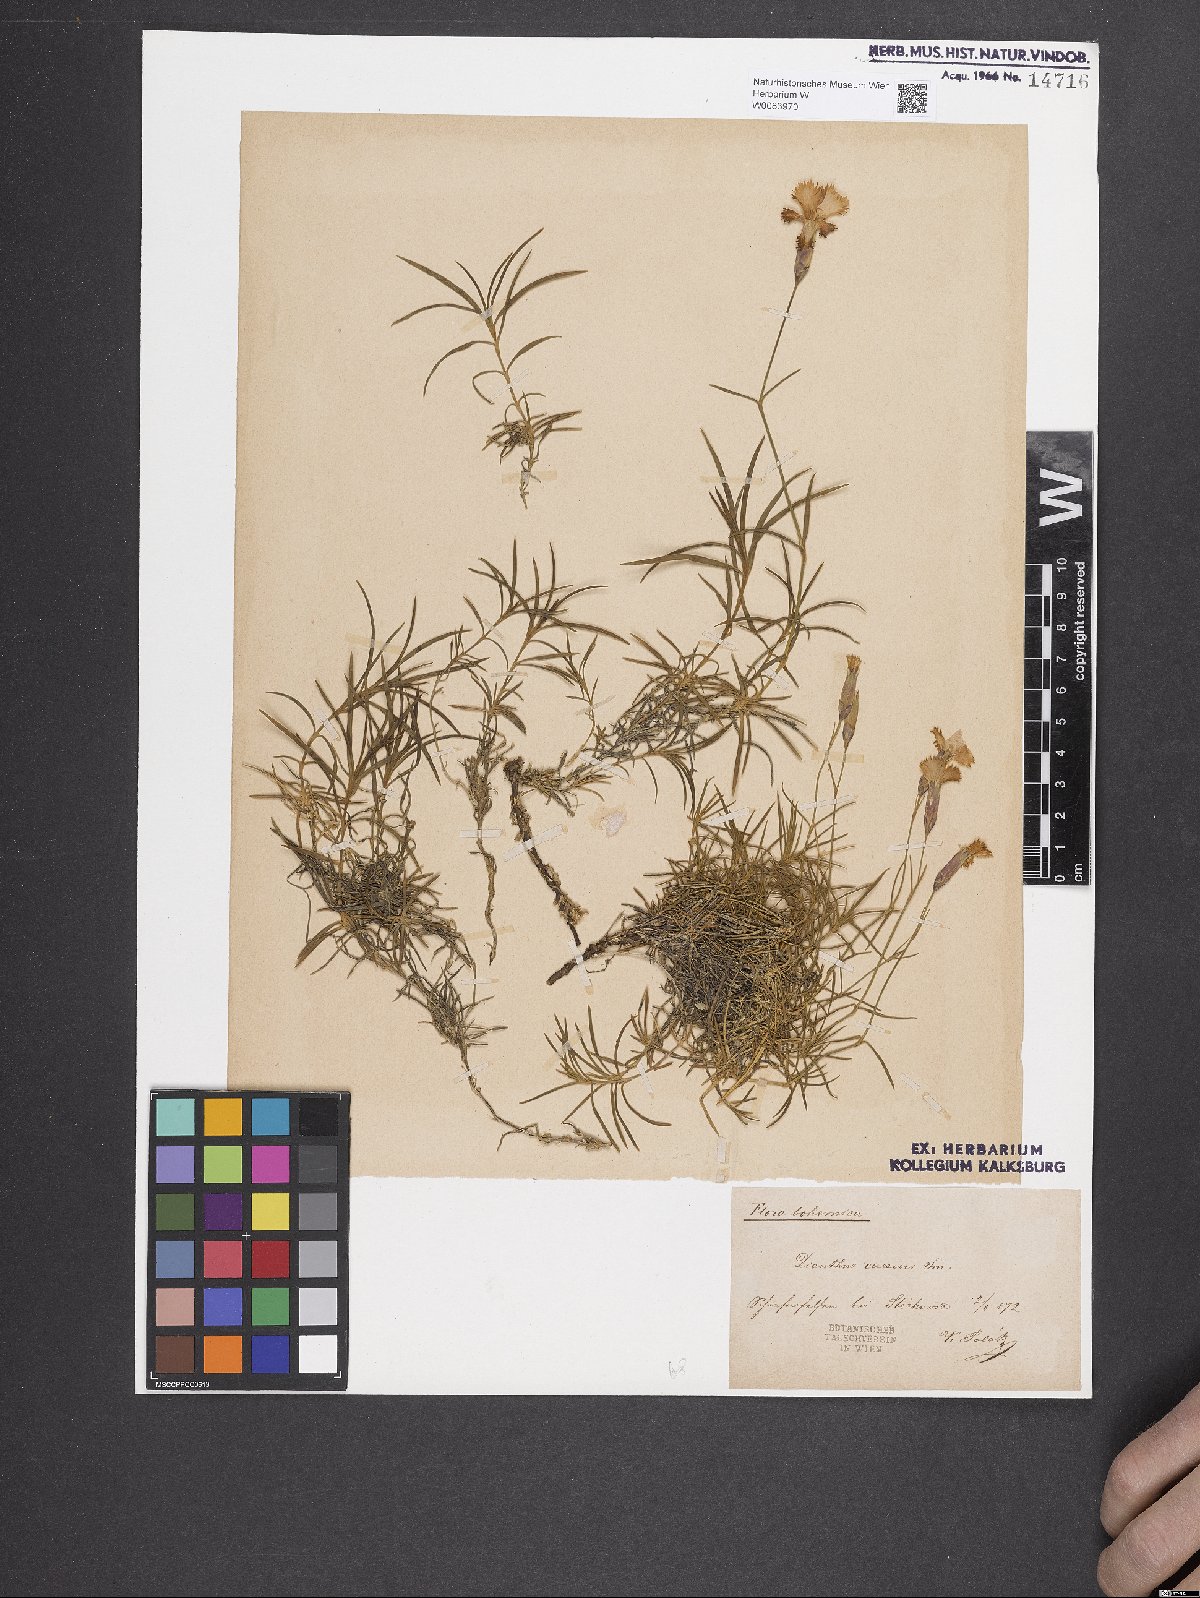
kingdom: Plantae
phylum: Tracheophyta
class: Magnoliopsida
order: Caryophyllales
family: Caryophyllaceae
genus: Dianthus
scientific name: Dianthus gratianopolitanus
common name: Cheddar pink
